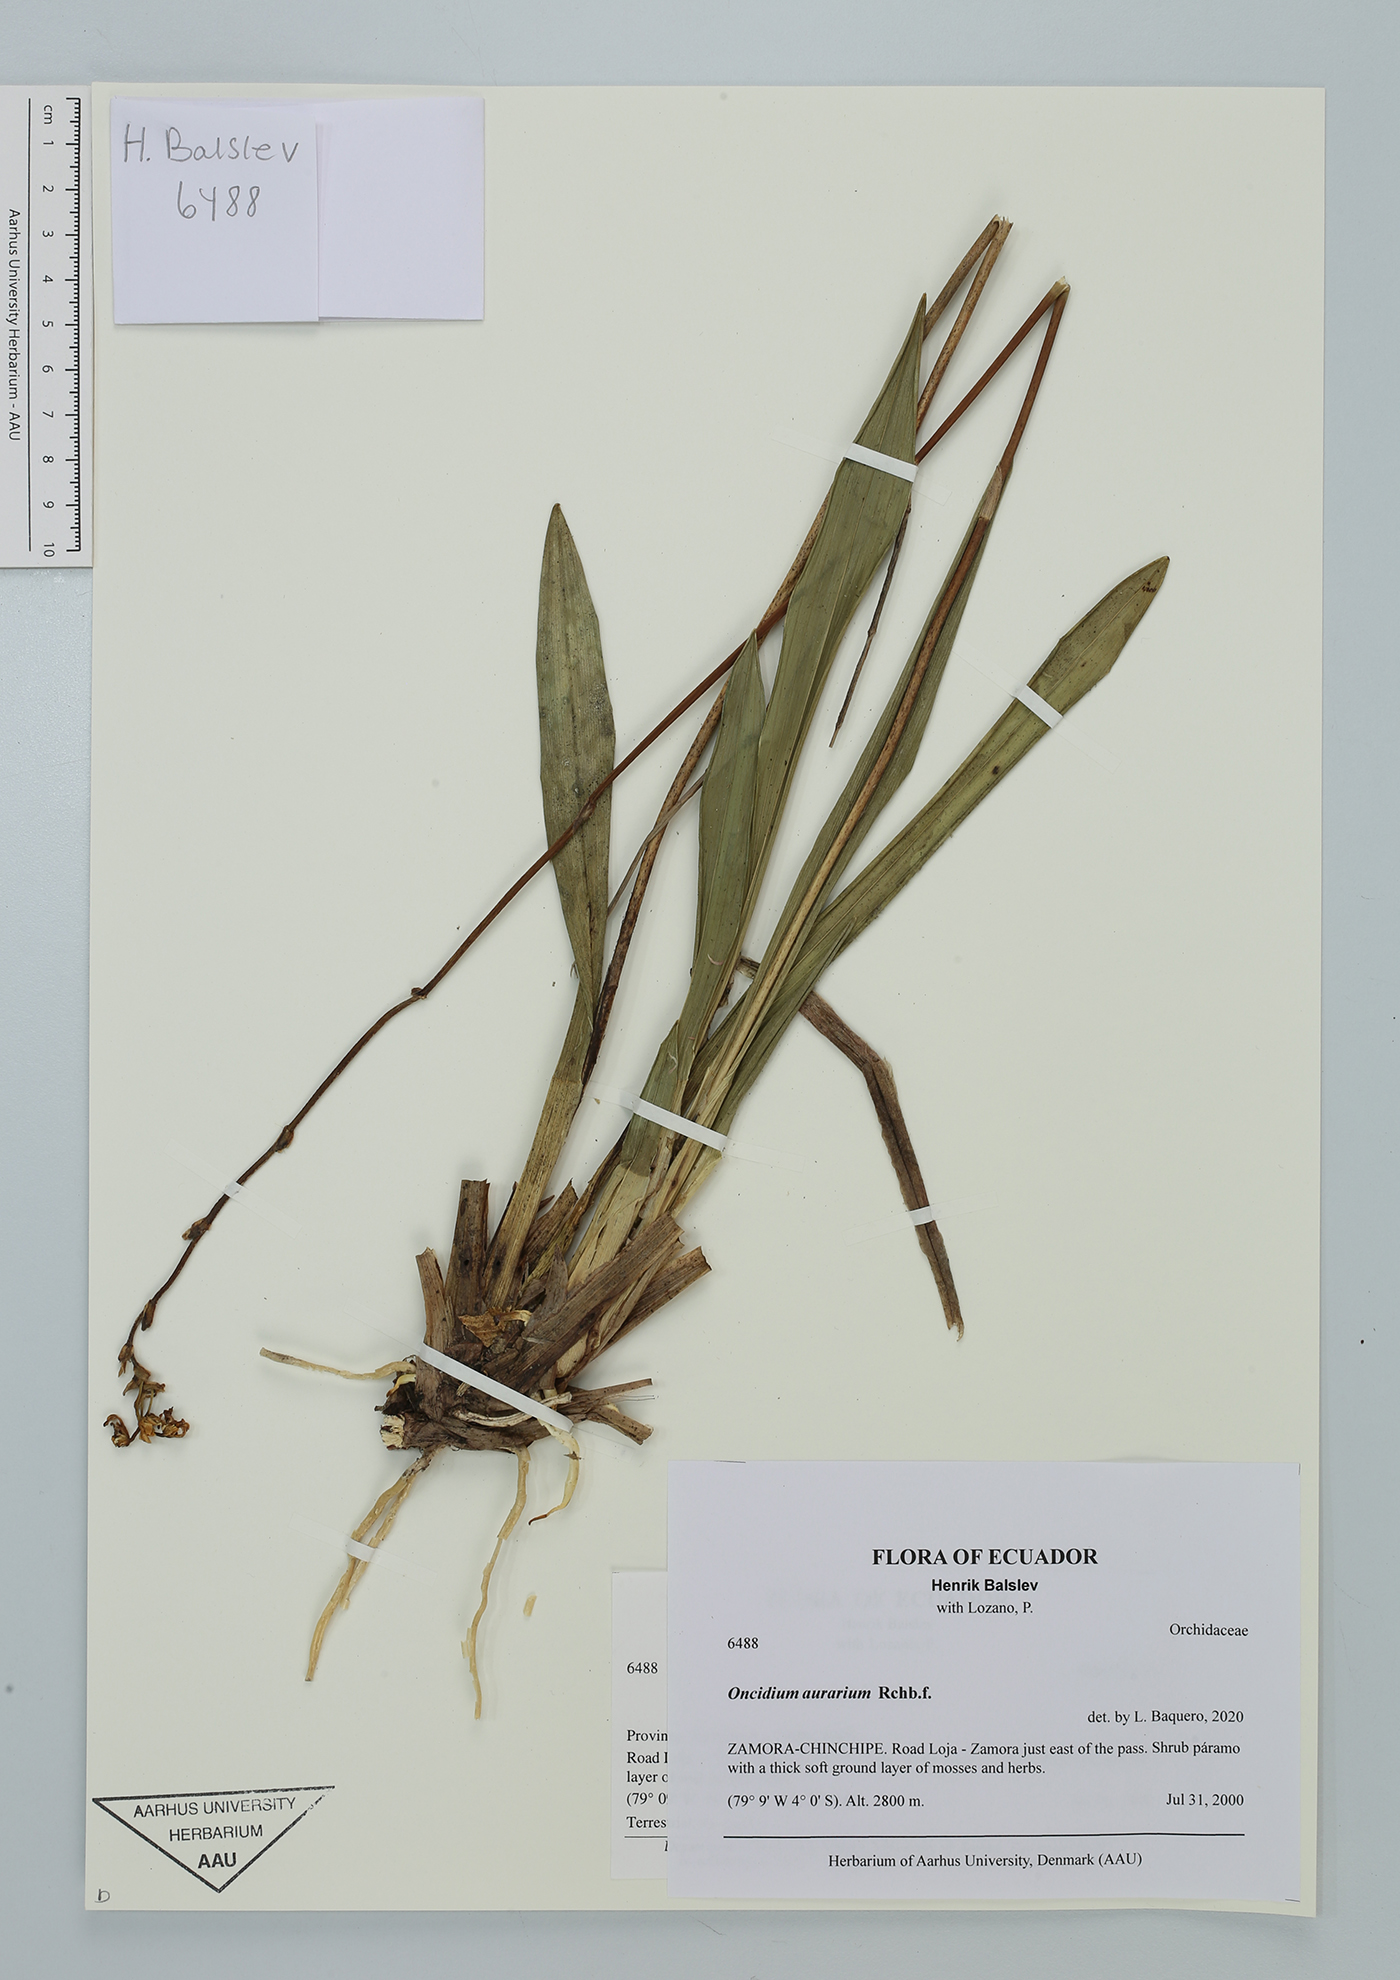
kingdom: Plantae
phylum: Tracheophyta
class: Liliopsida
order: Asparagales
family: Orchidaceae
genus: Oncidium
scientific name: Oncidium aurarium
